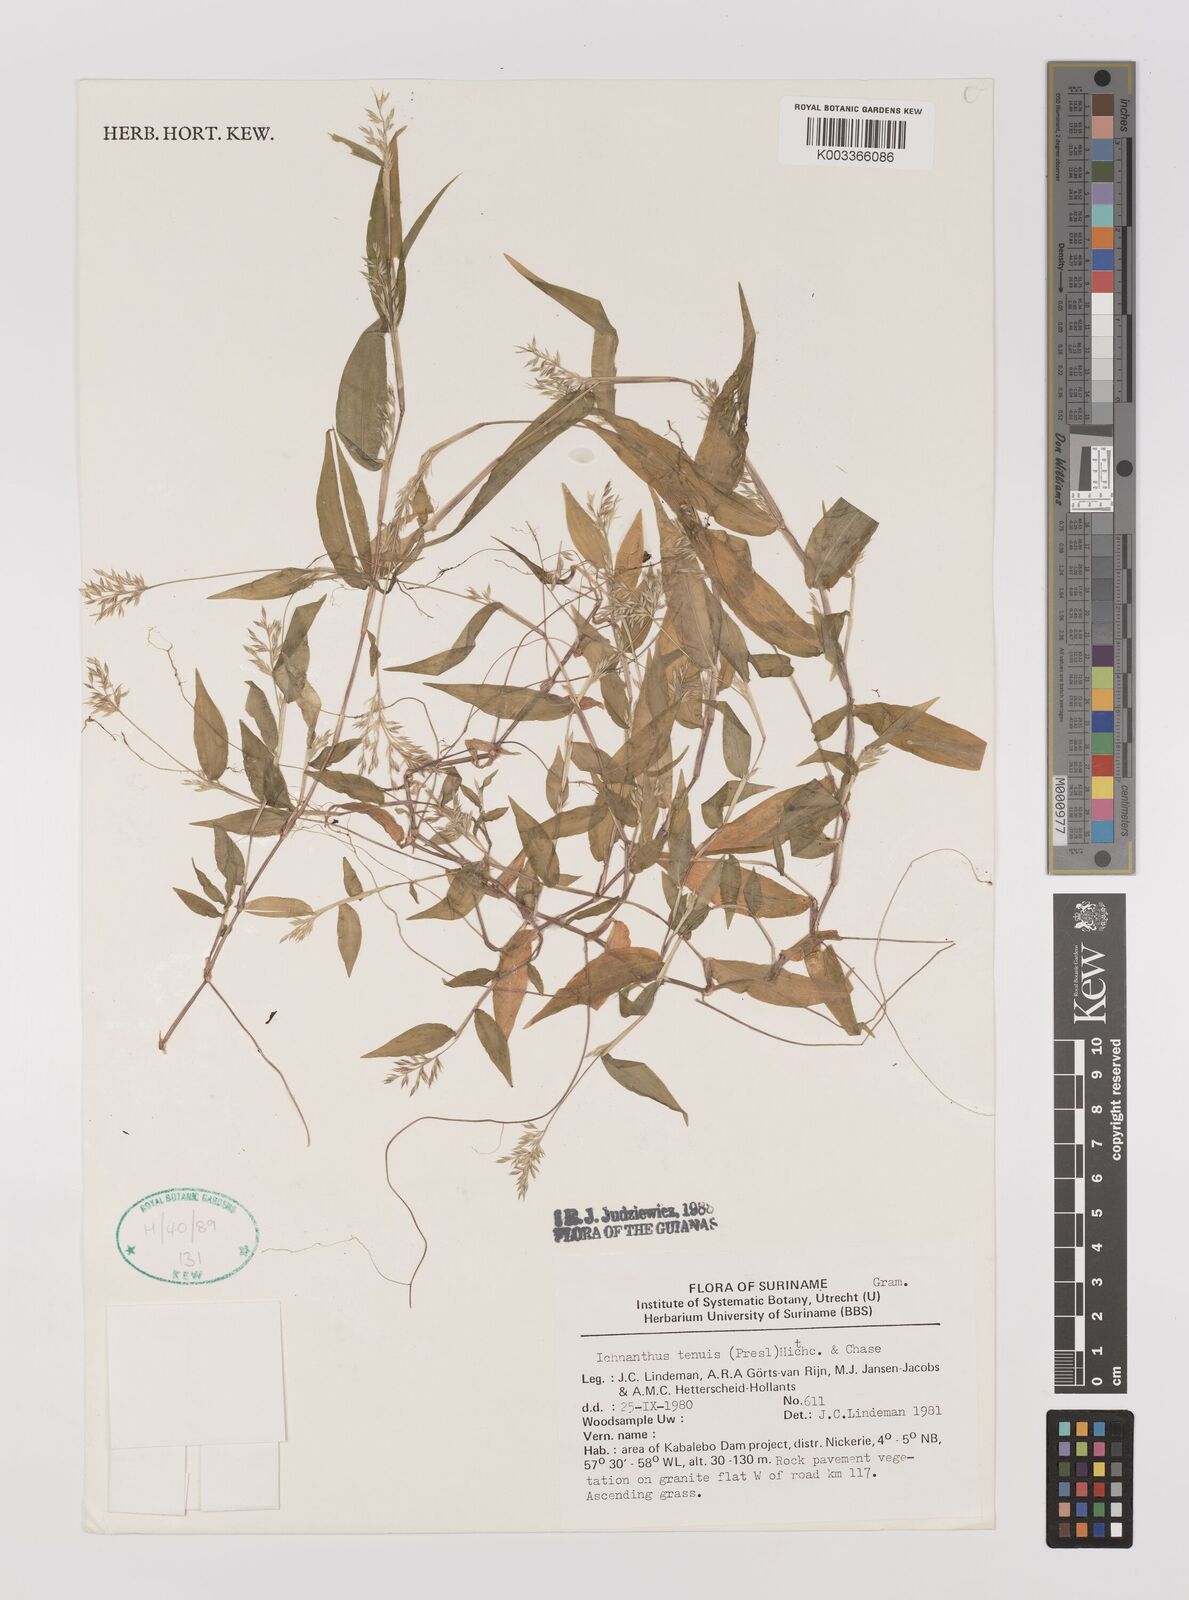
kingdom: Plantae
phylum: Tracheophyta
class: Liliopsida
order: Poales
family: Poaceae
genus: Ichnanthus
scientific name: Ichnanthus tenuis
